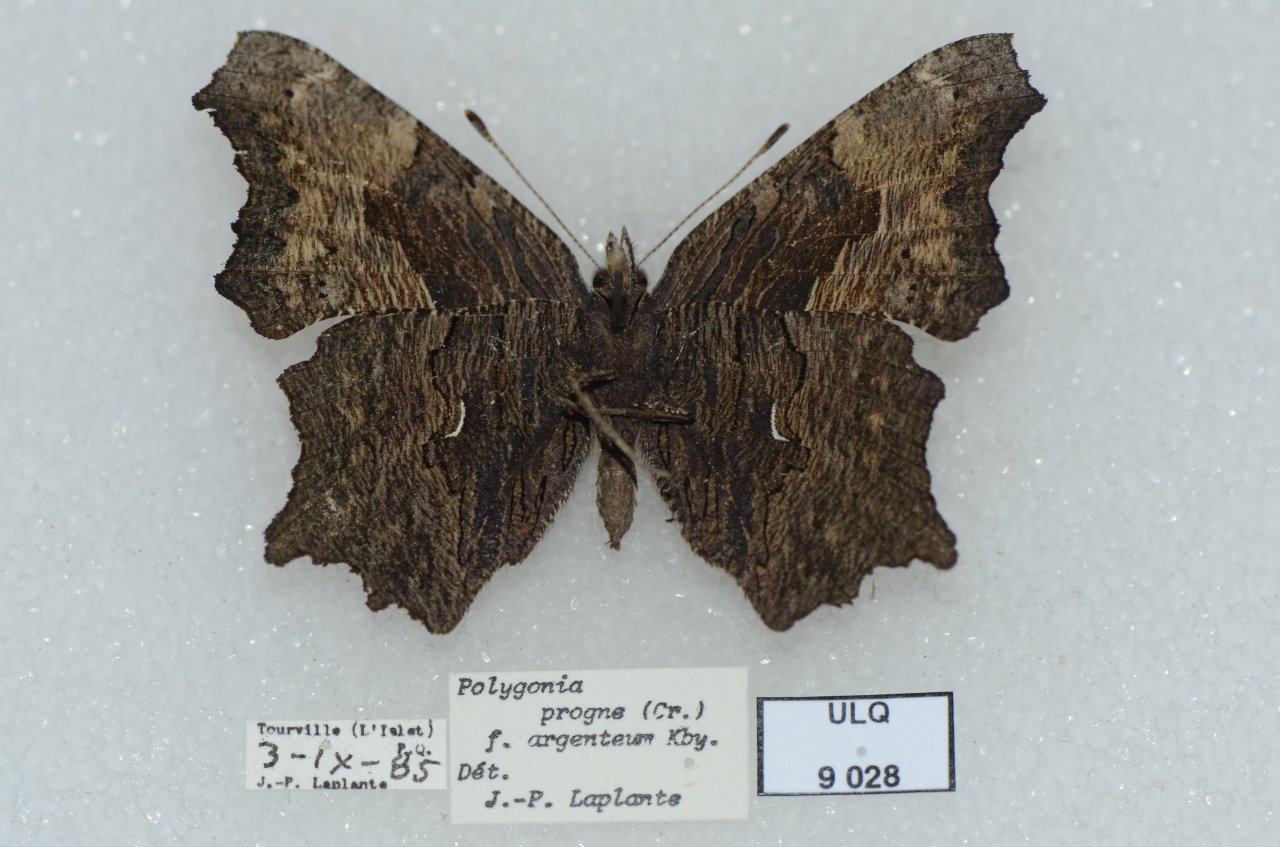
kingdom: Animalia
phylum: Arthropoda
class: Insecta
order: Lepidoptera
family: Nymphalidae
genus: Polygonia
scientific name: Polygonia progne
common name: Gray Comma
